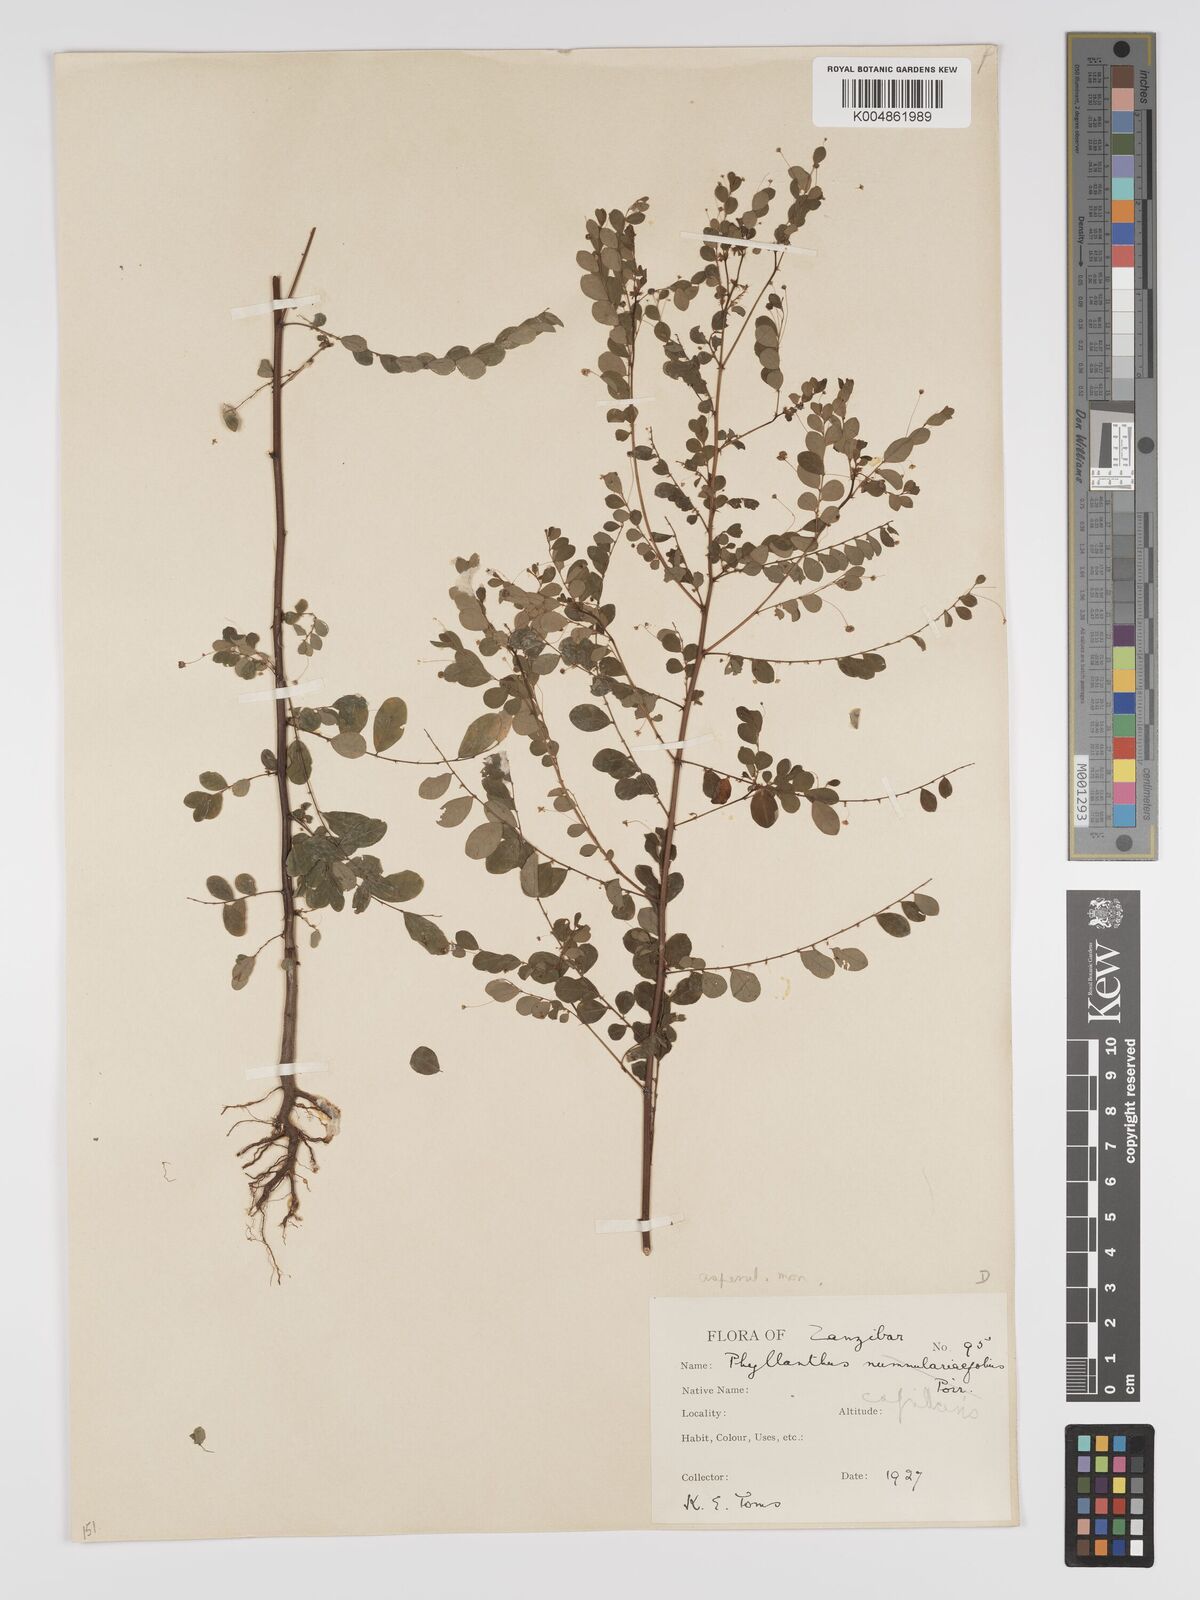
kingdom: Plantae
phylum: Tracheophyta
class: Magnoliopsida
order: Malpighiales
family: Phyllanthaceae
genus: Phyllanthus
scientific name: Phyllanthus nummulariifolius
